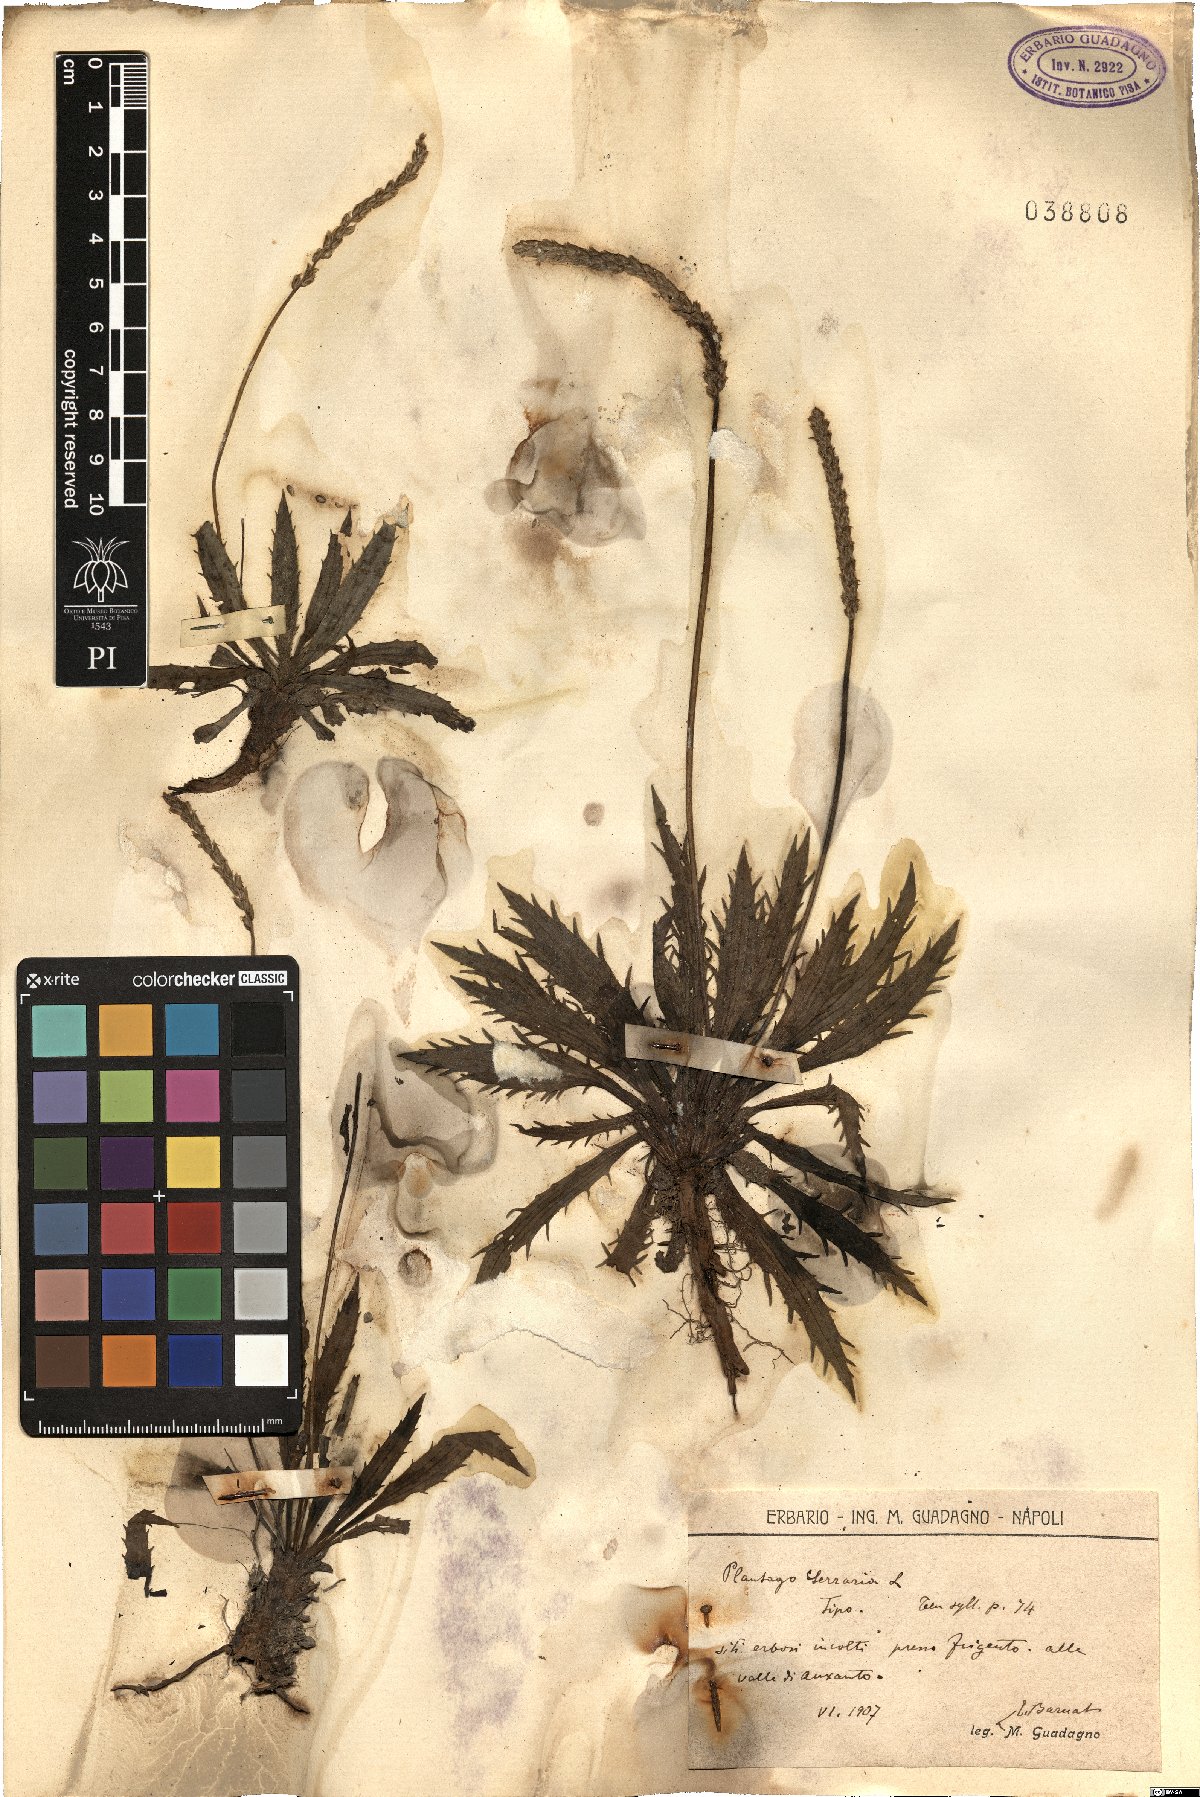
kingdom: Plantae
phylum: Tracheophyta
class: Magnoliopsida
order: Lamiales
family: Plantaginaceae
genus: Plantago
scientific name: Plantago serraria
